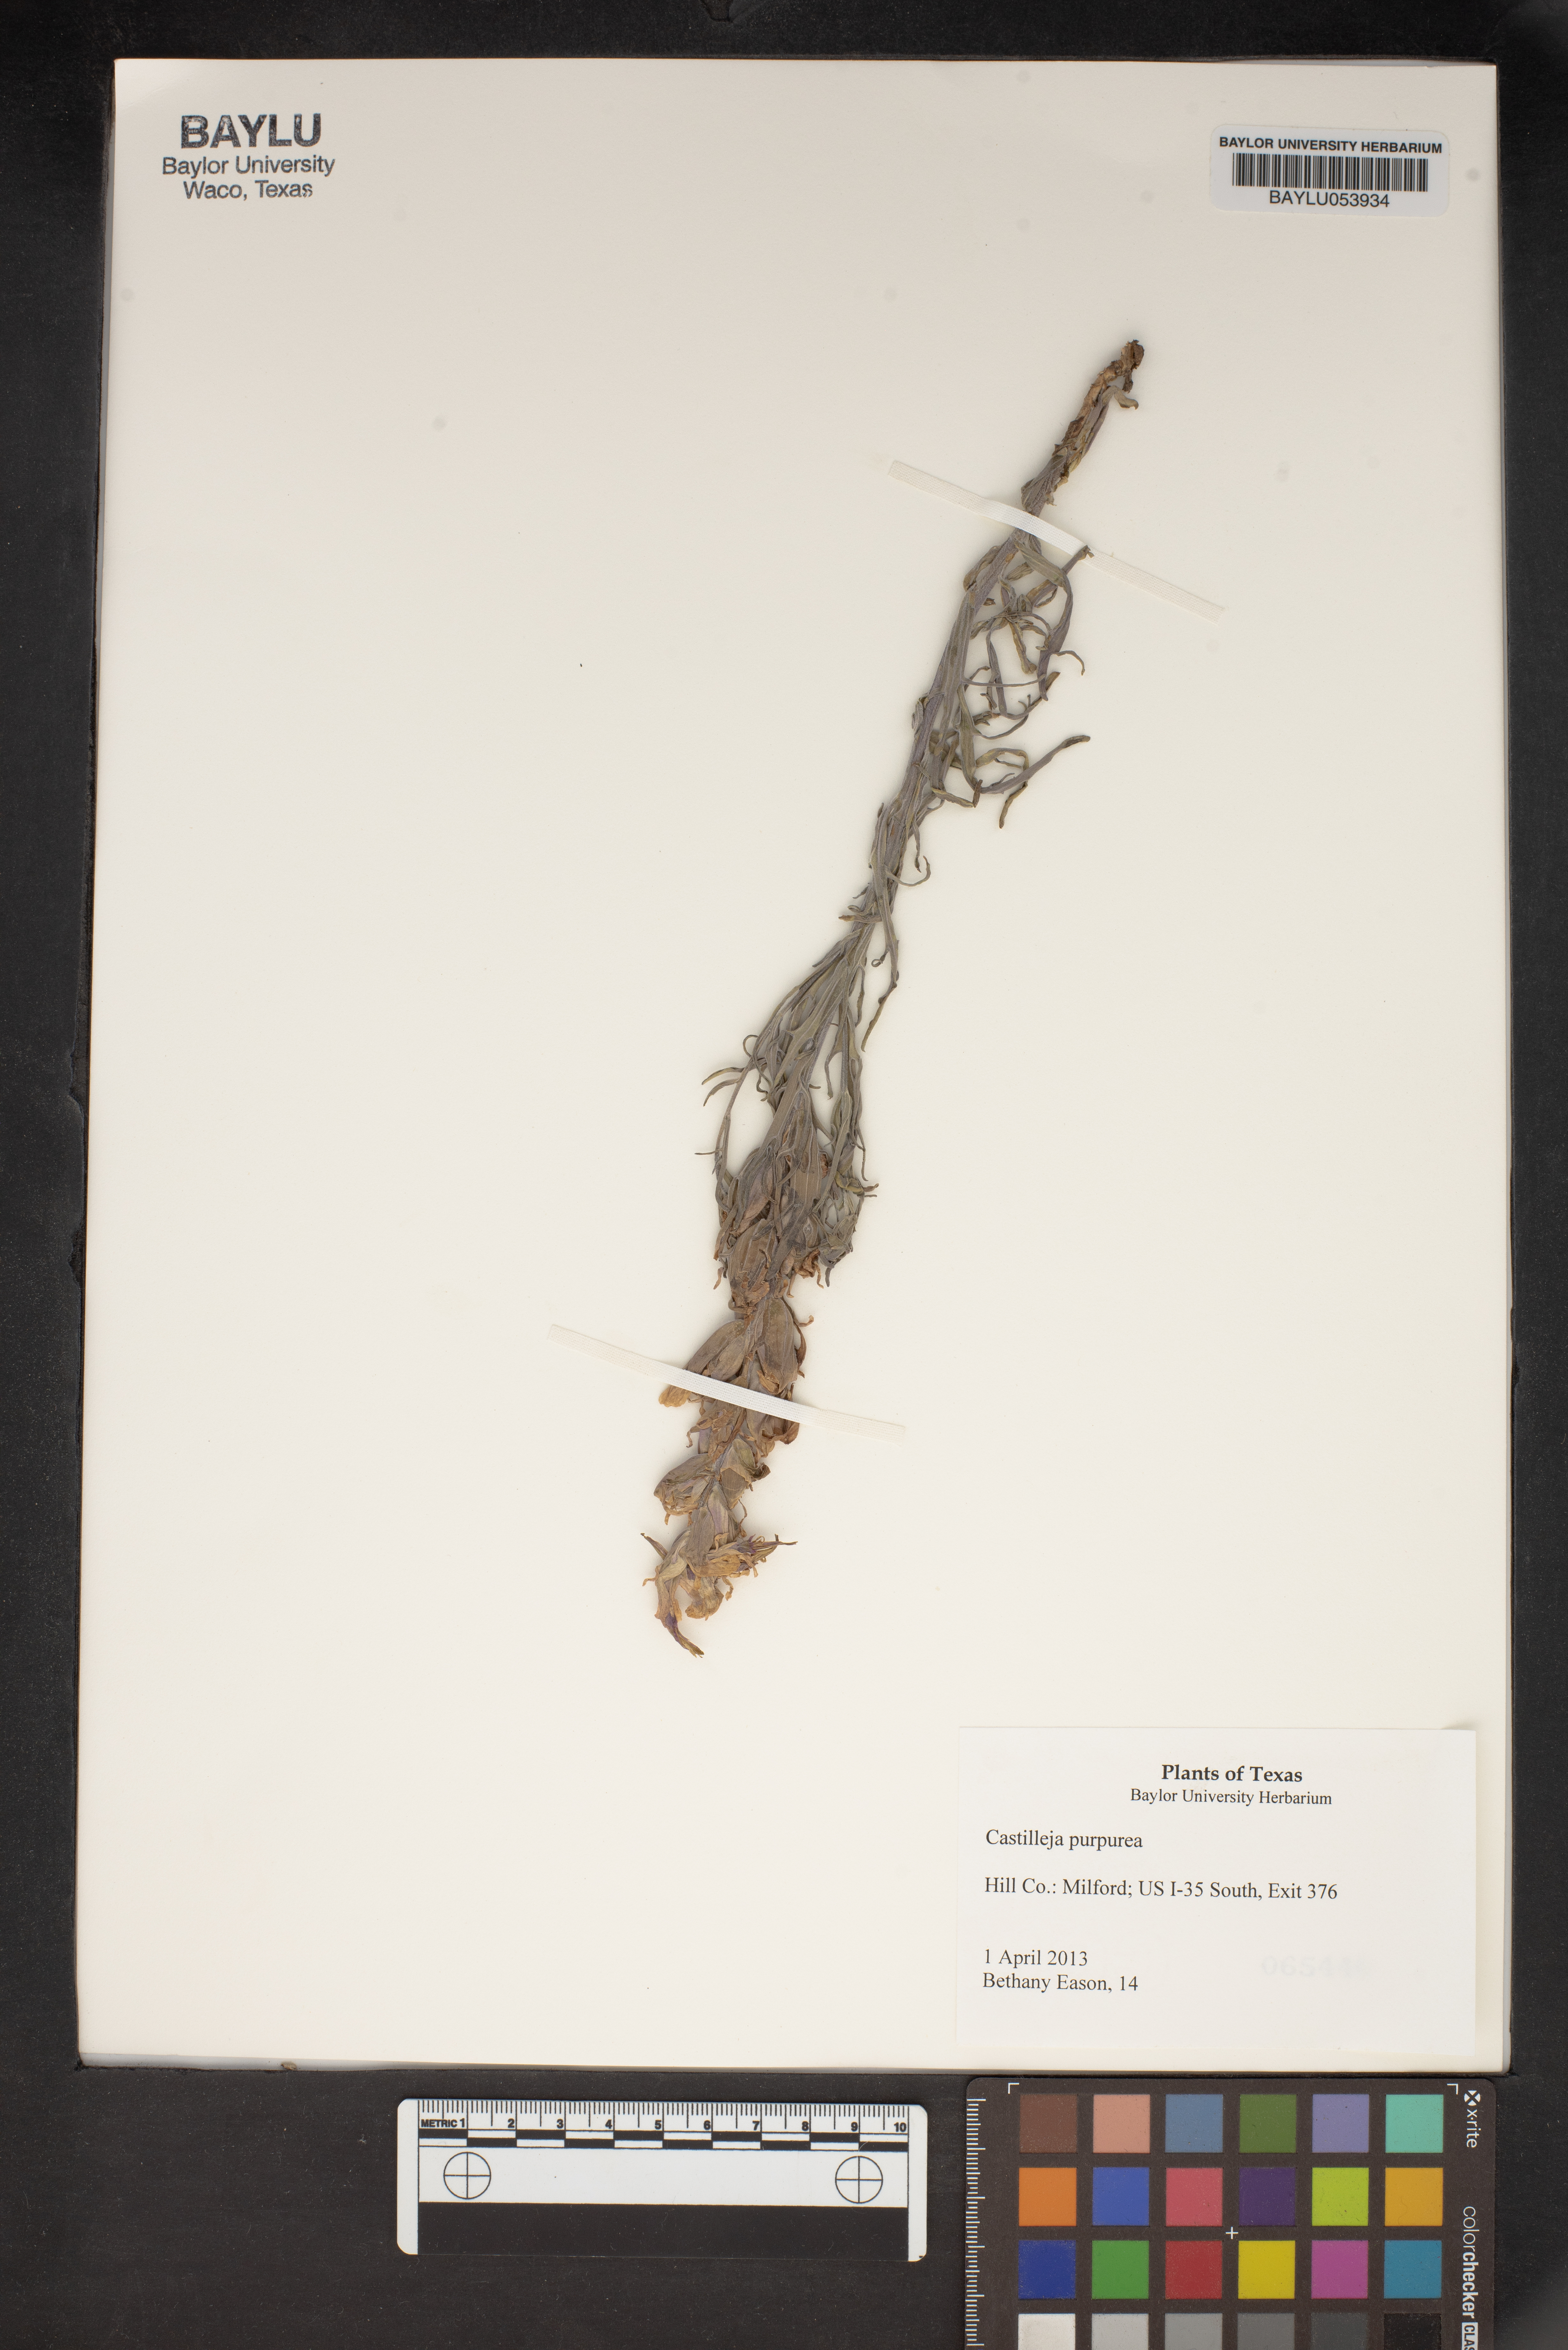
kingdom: Plantae
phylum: Tracheophyta
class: Magnoliopsida
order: Lamiales
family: Orobanchaceae
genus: Castilleja
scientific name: Castilleja purpurea
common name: Plains paintbrush
